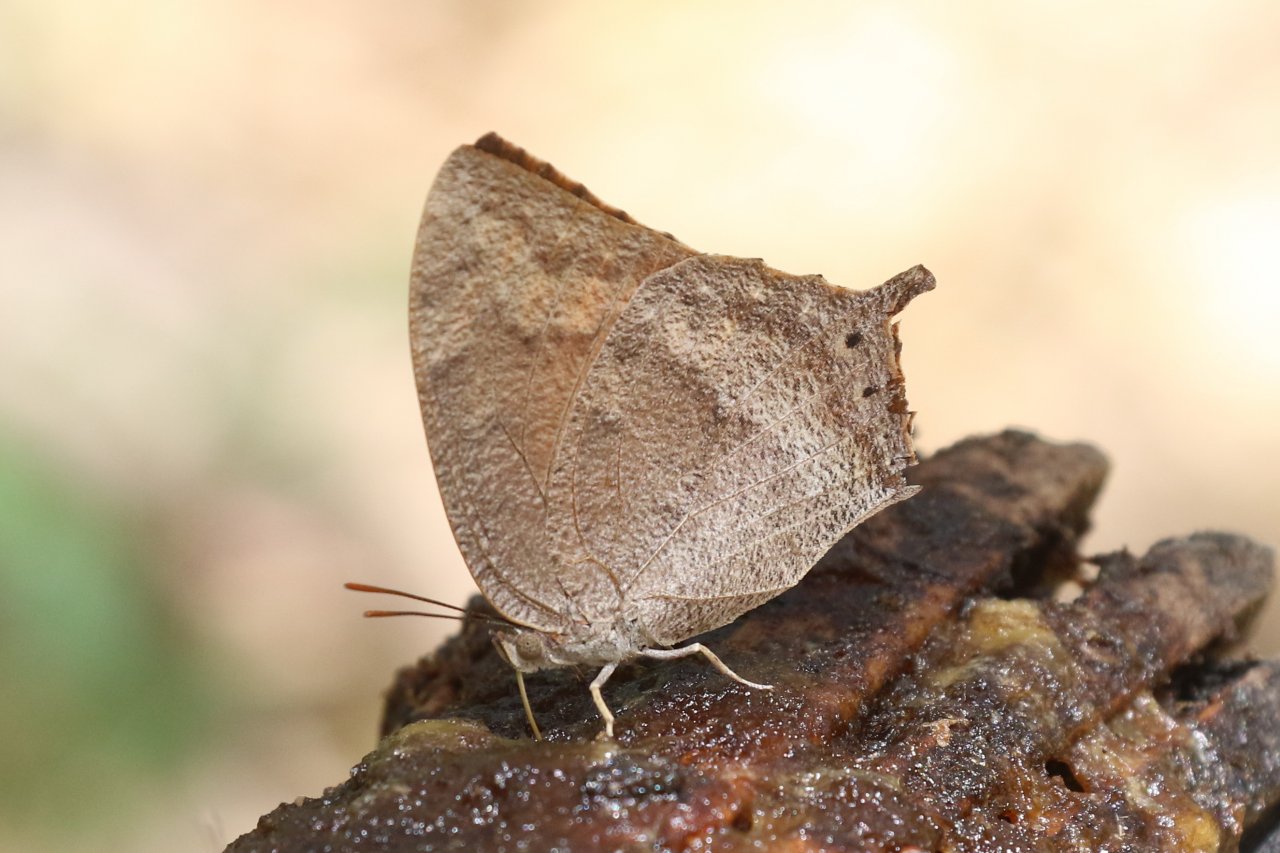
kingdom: Animalia
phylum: Arthropoda
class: Insecta
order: Lepidoptera
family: Nymphalidae
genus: Anaea
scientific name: Anaea aidea
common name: Tropical Leafwing
